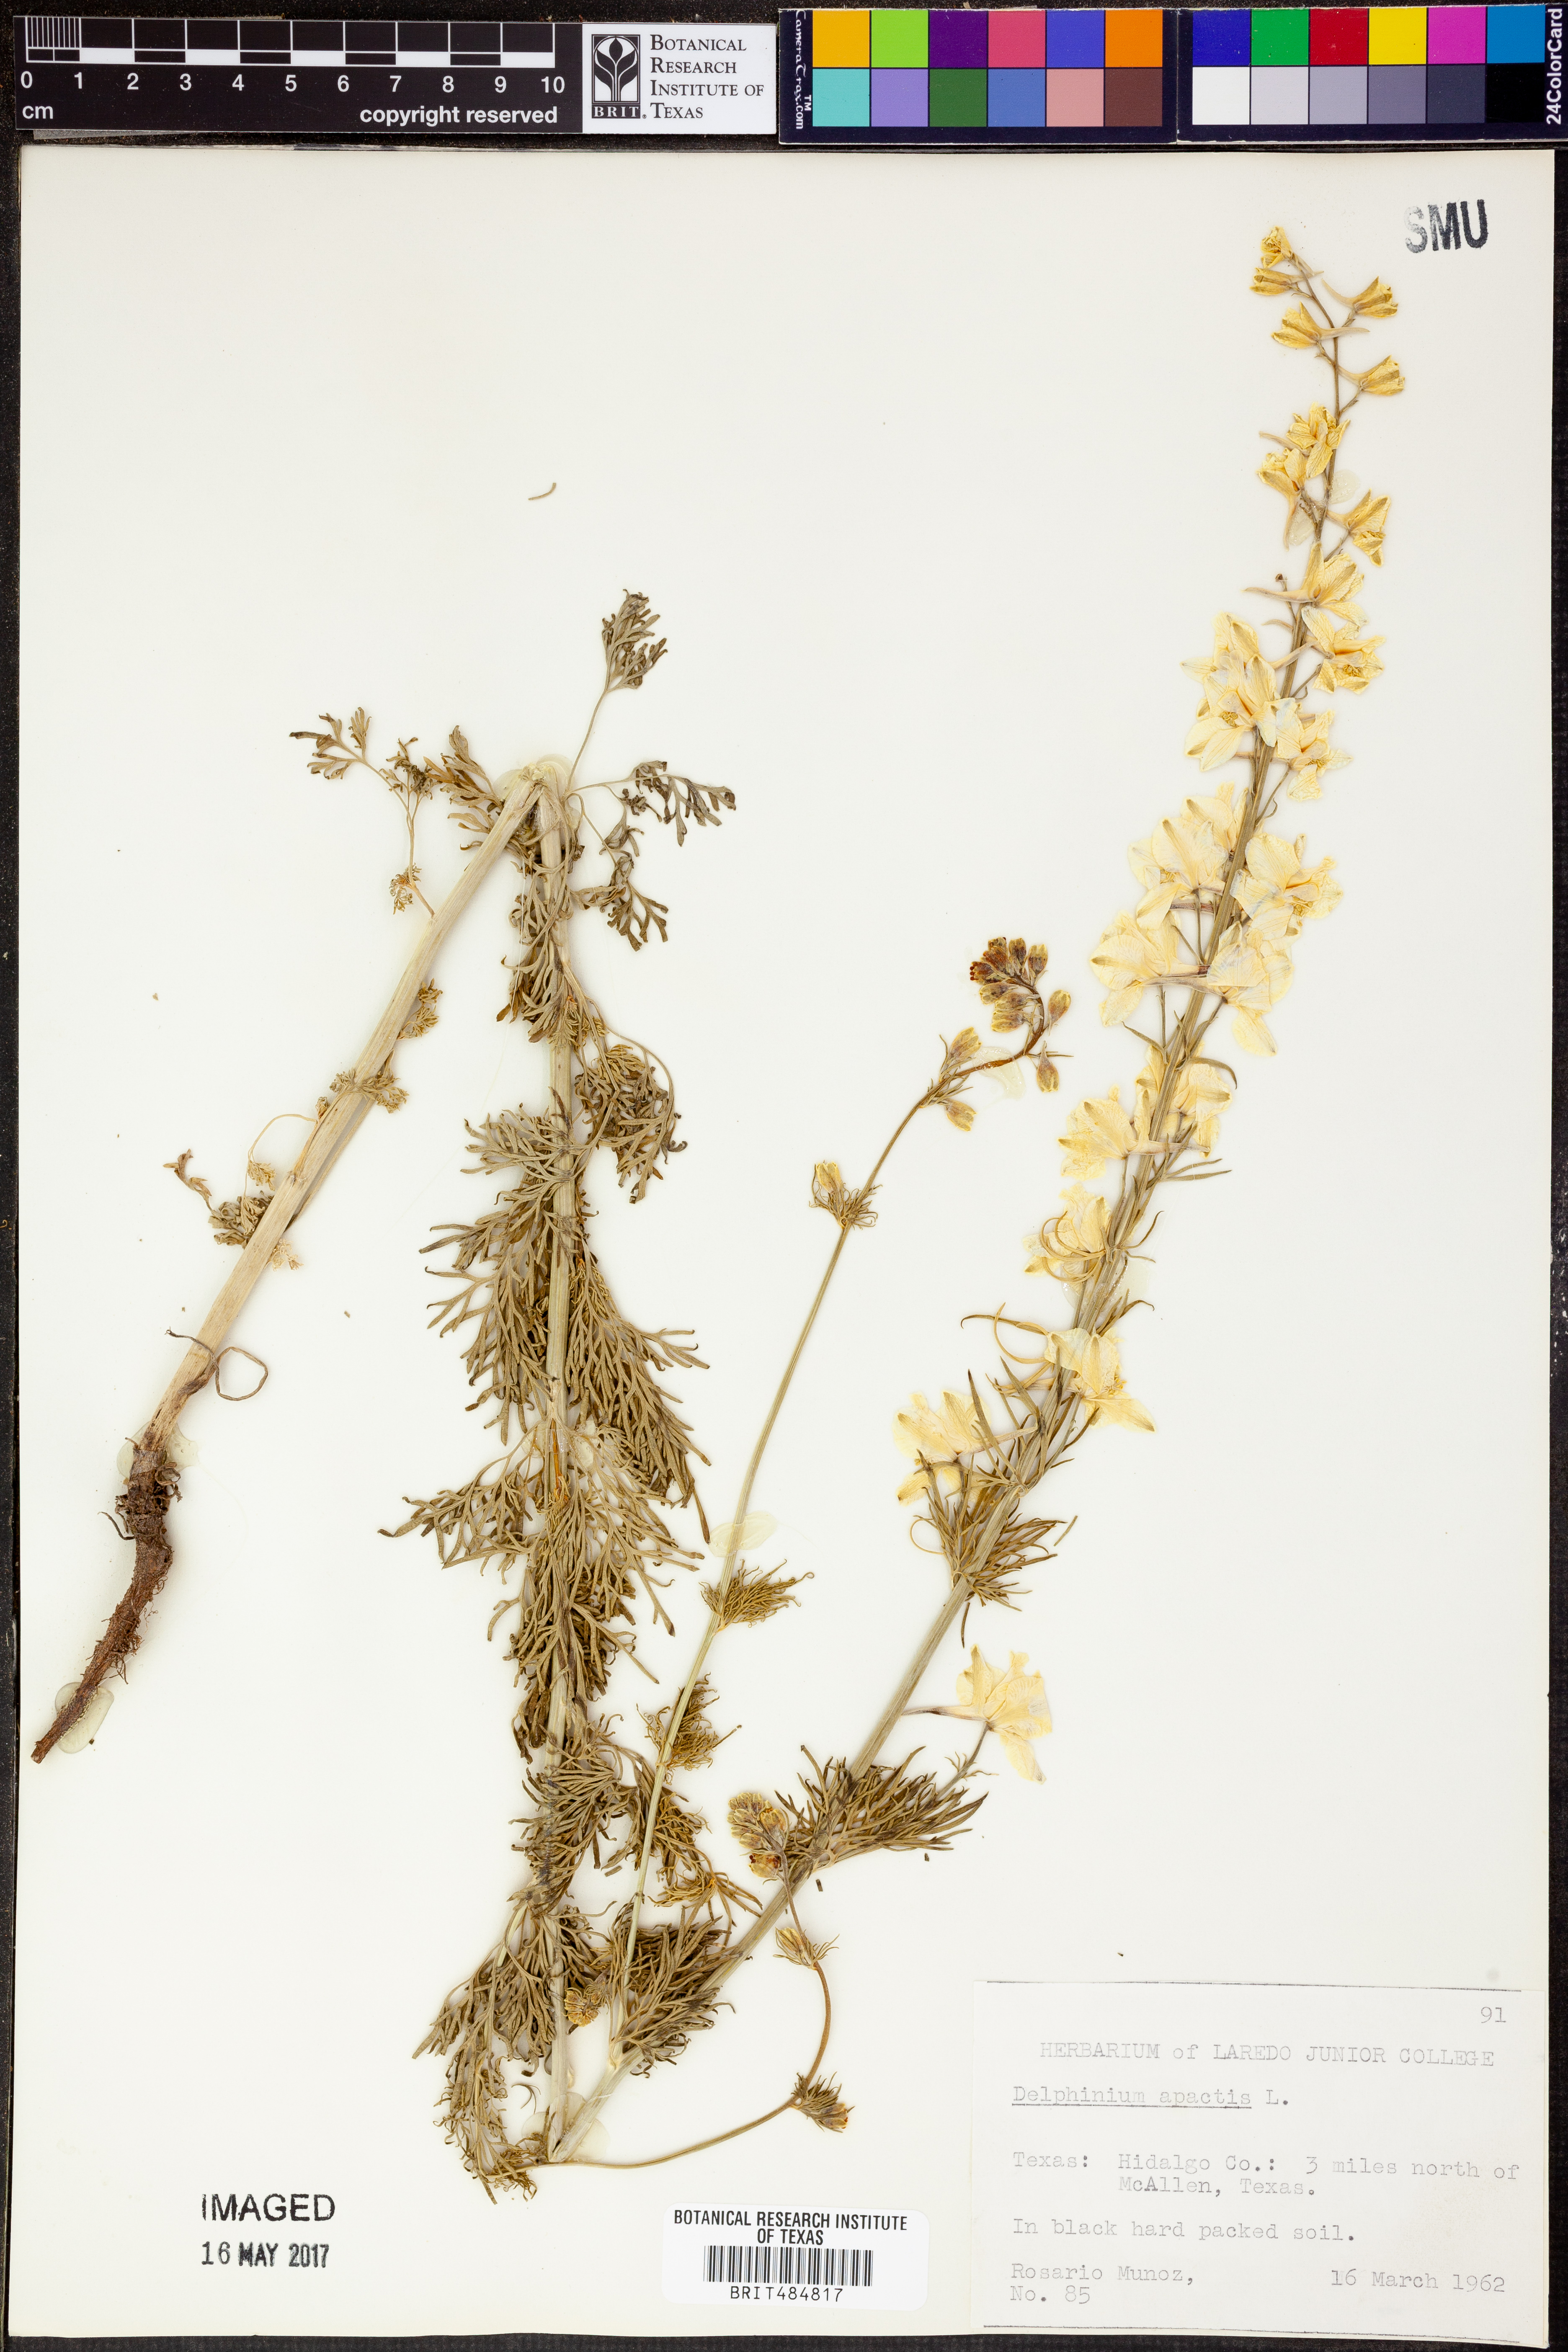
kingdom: Plantae
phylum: Tracheophyta
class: Magnoliopsida
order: Ranunculales
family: Ranunculaceae
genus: Delphinium
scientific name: Delphinium ajacis
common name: Doubtful knight's-spur
